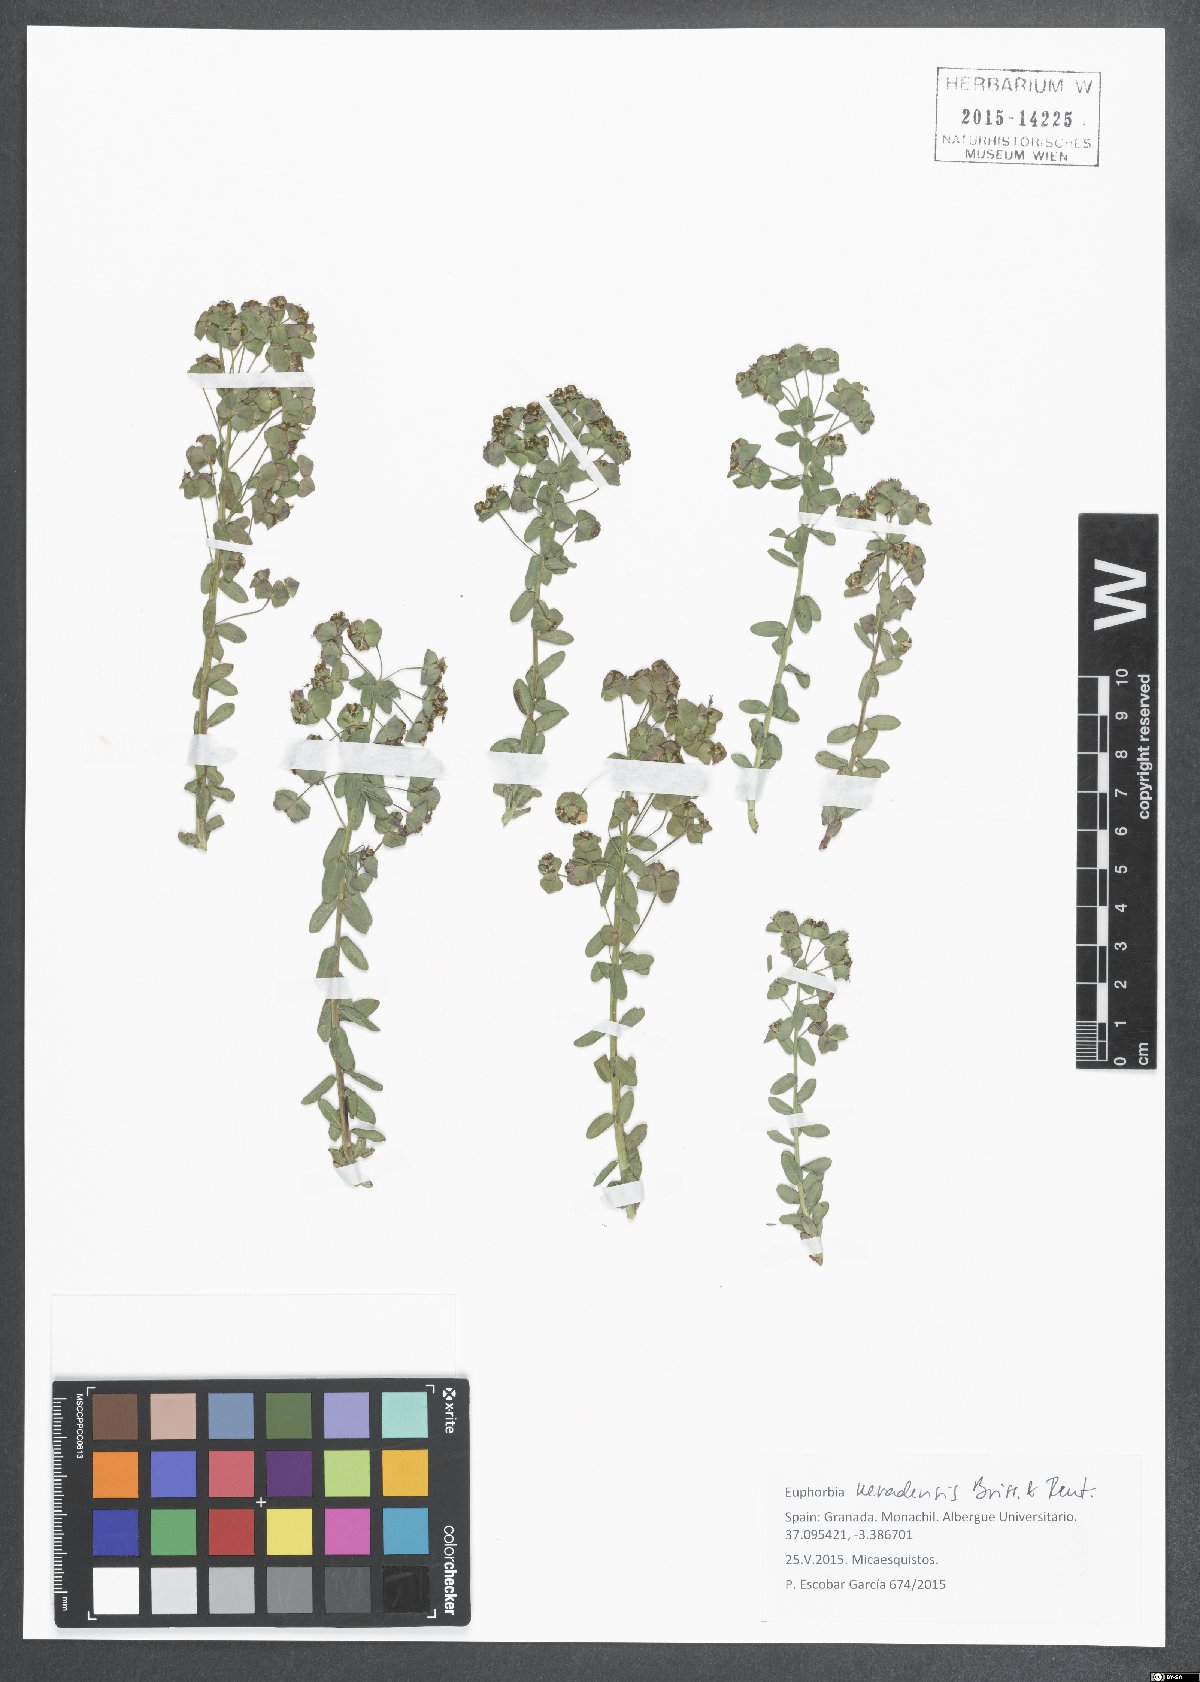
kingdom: Plantae
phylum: Tracheophyta
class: Magnoliopsida
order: Malpighiales
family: Euphorbiaceae
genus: Euphorbia
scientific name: Euphorbia nevadensis
